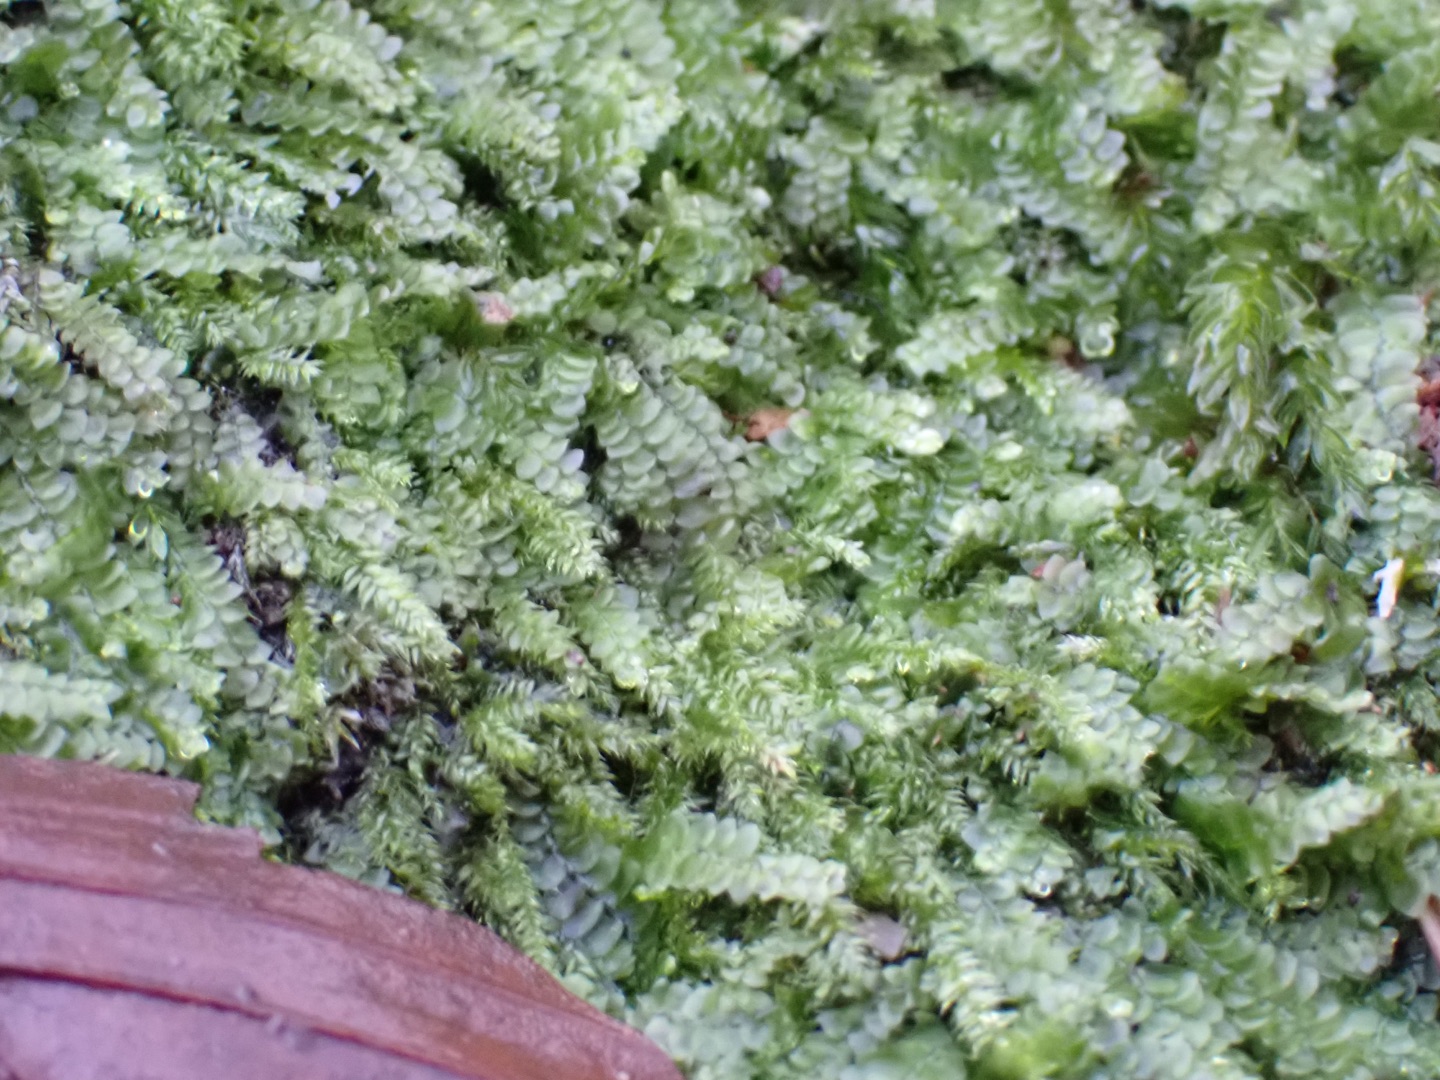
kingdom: Plantae
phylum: Marchantiophyta
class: Jungermanniopsida
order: Jungermanniales
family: Calypogeiaceae
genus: Calypogeia
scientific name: Calypogeia
